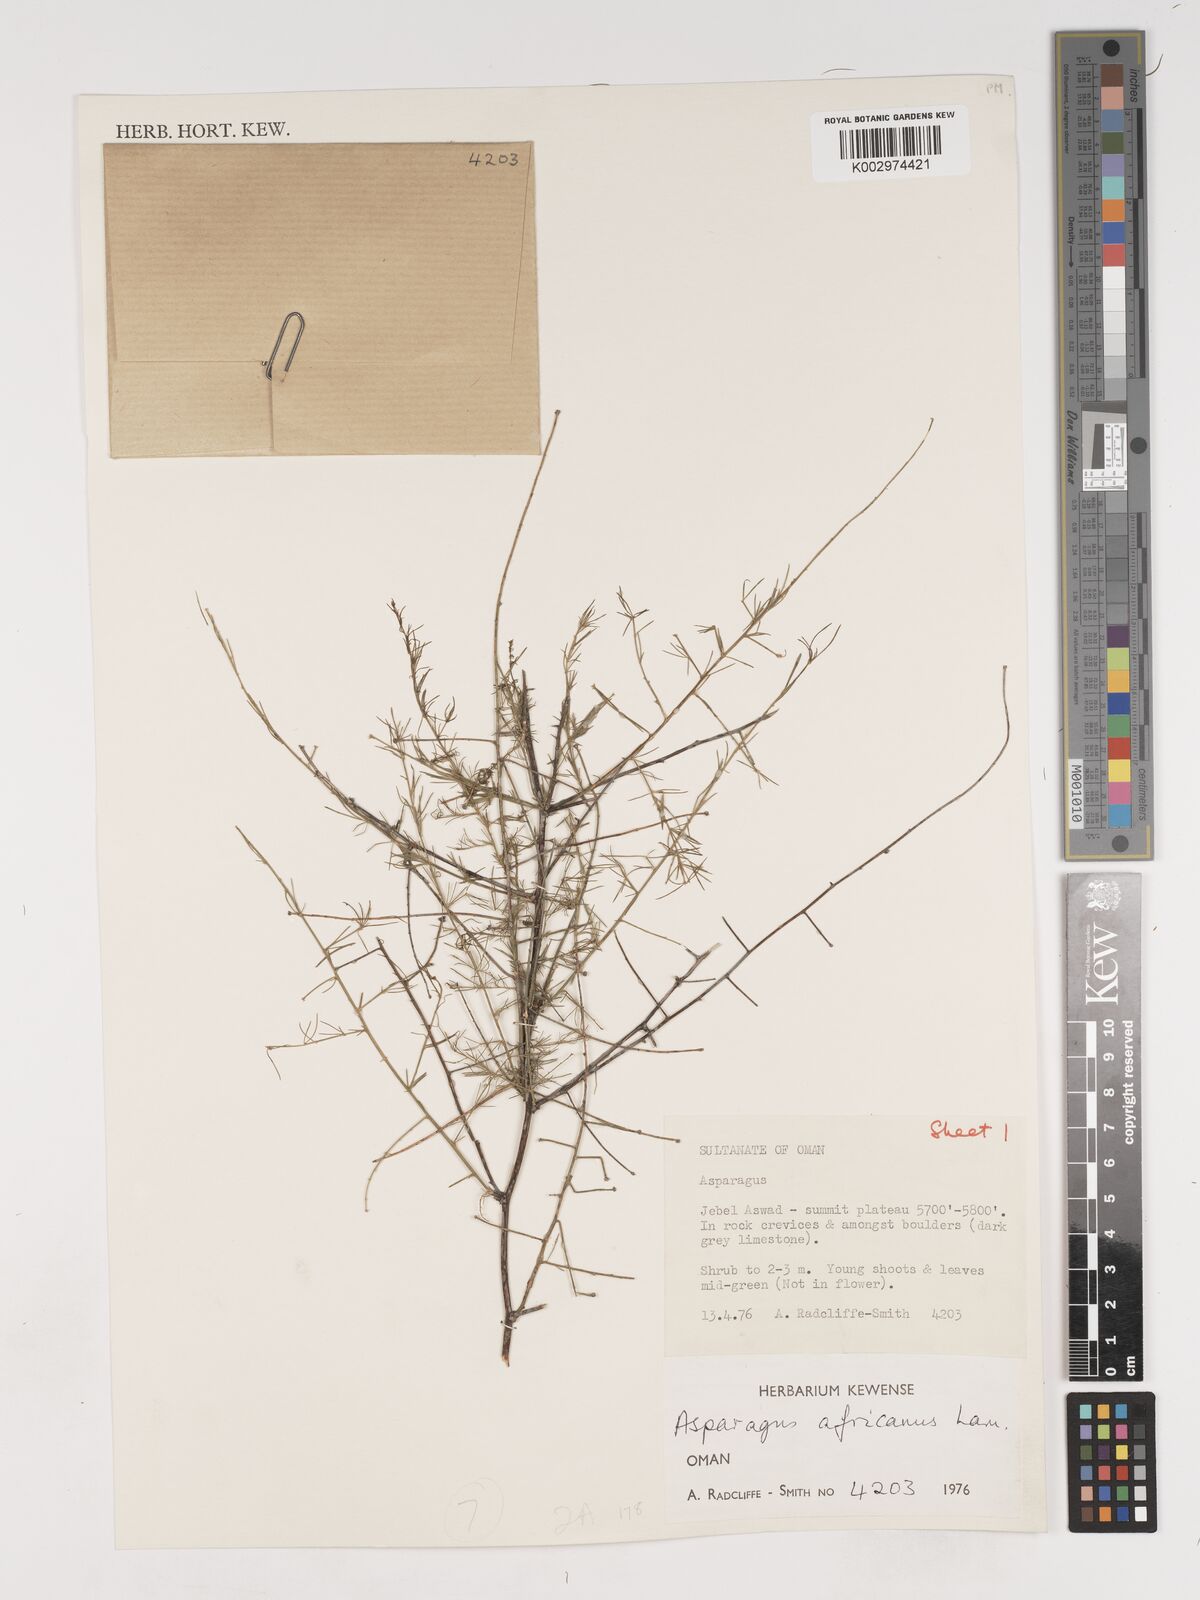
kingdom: Plantae
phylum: Tracheophyta
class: Liliopsida
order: Asparagales
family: Asparagaceae
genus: Asparagus
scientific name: Asparagus africanus
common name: Asparagus-fern
